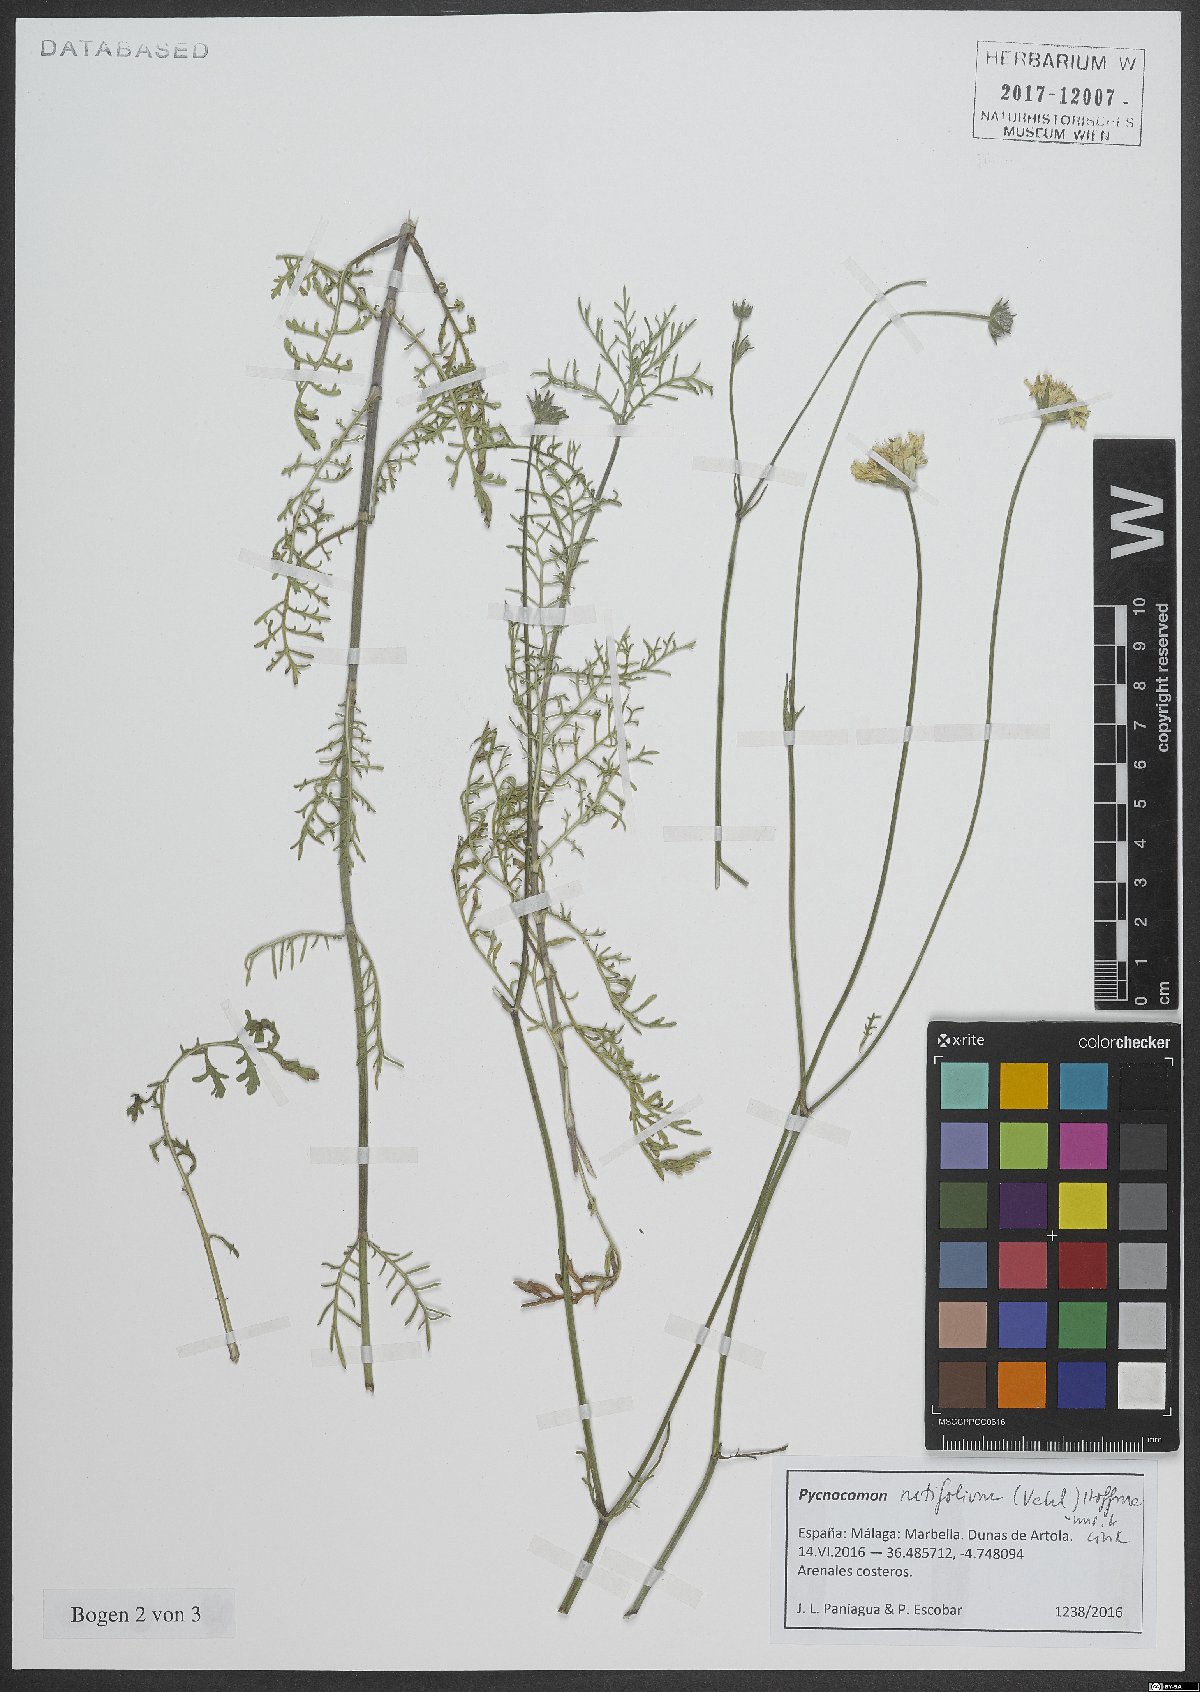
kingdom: Plantae
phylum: Tracheophyta
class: Magnoliopsida
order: Dipsacales
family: Caprifoliaceae
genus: Pycnocomon
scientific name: Pycnocomon rutifolium
